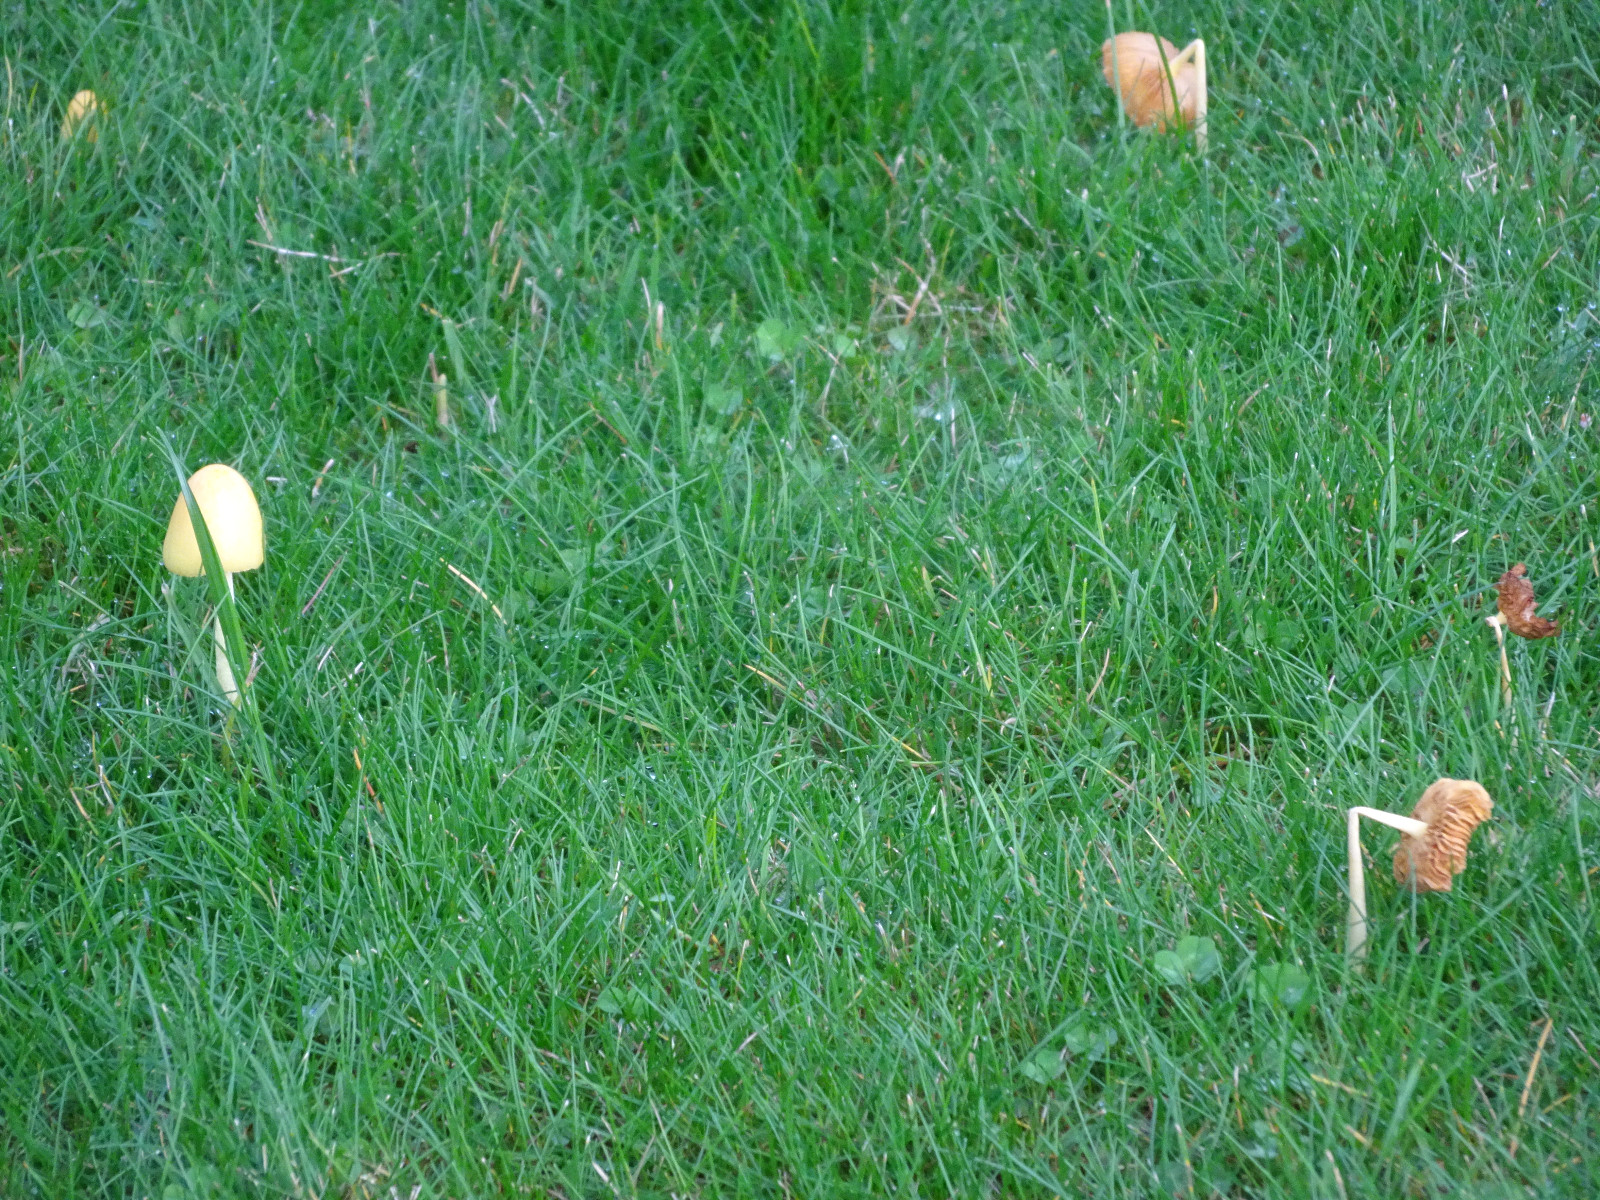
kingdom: Fungi
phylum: Basidiomycota
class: Agaricomycetes
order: Agaricales
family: Bolbitiaceae
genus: Bolbitius
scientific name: Bolbitius titubans
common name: almindelig gulhat
